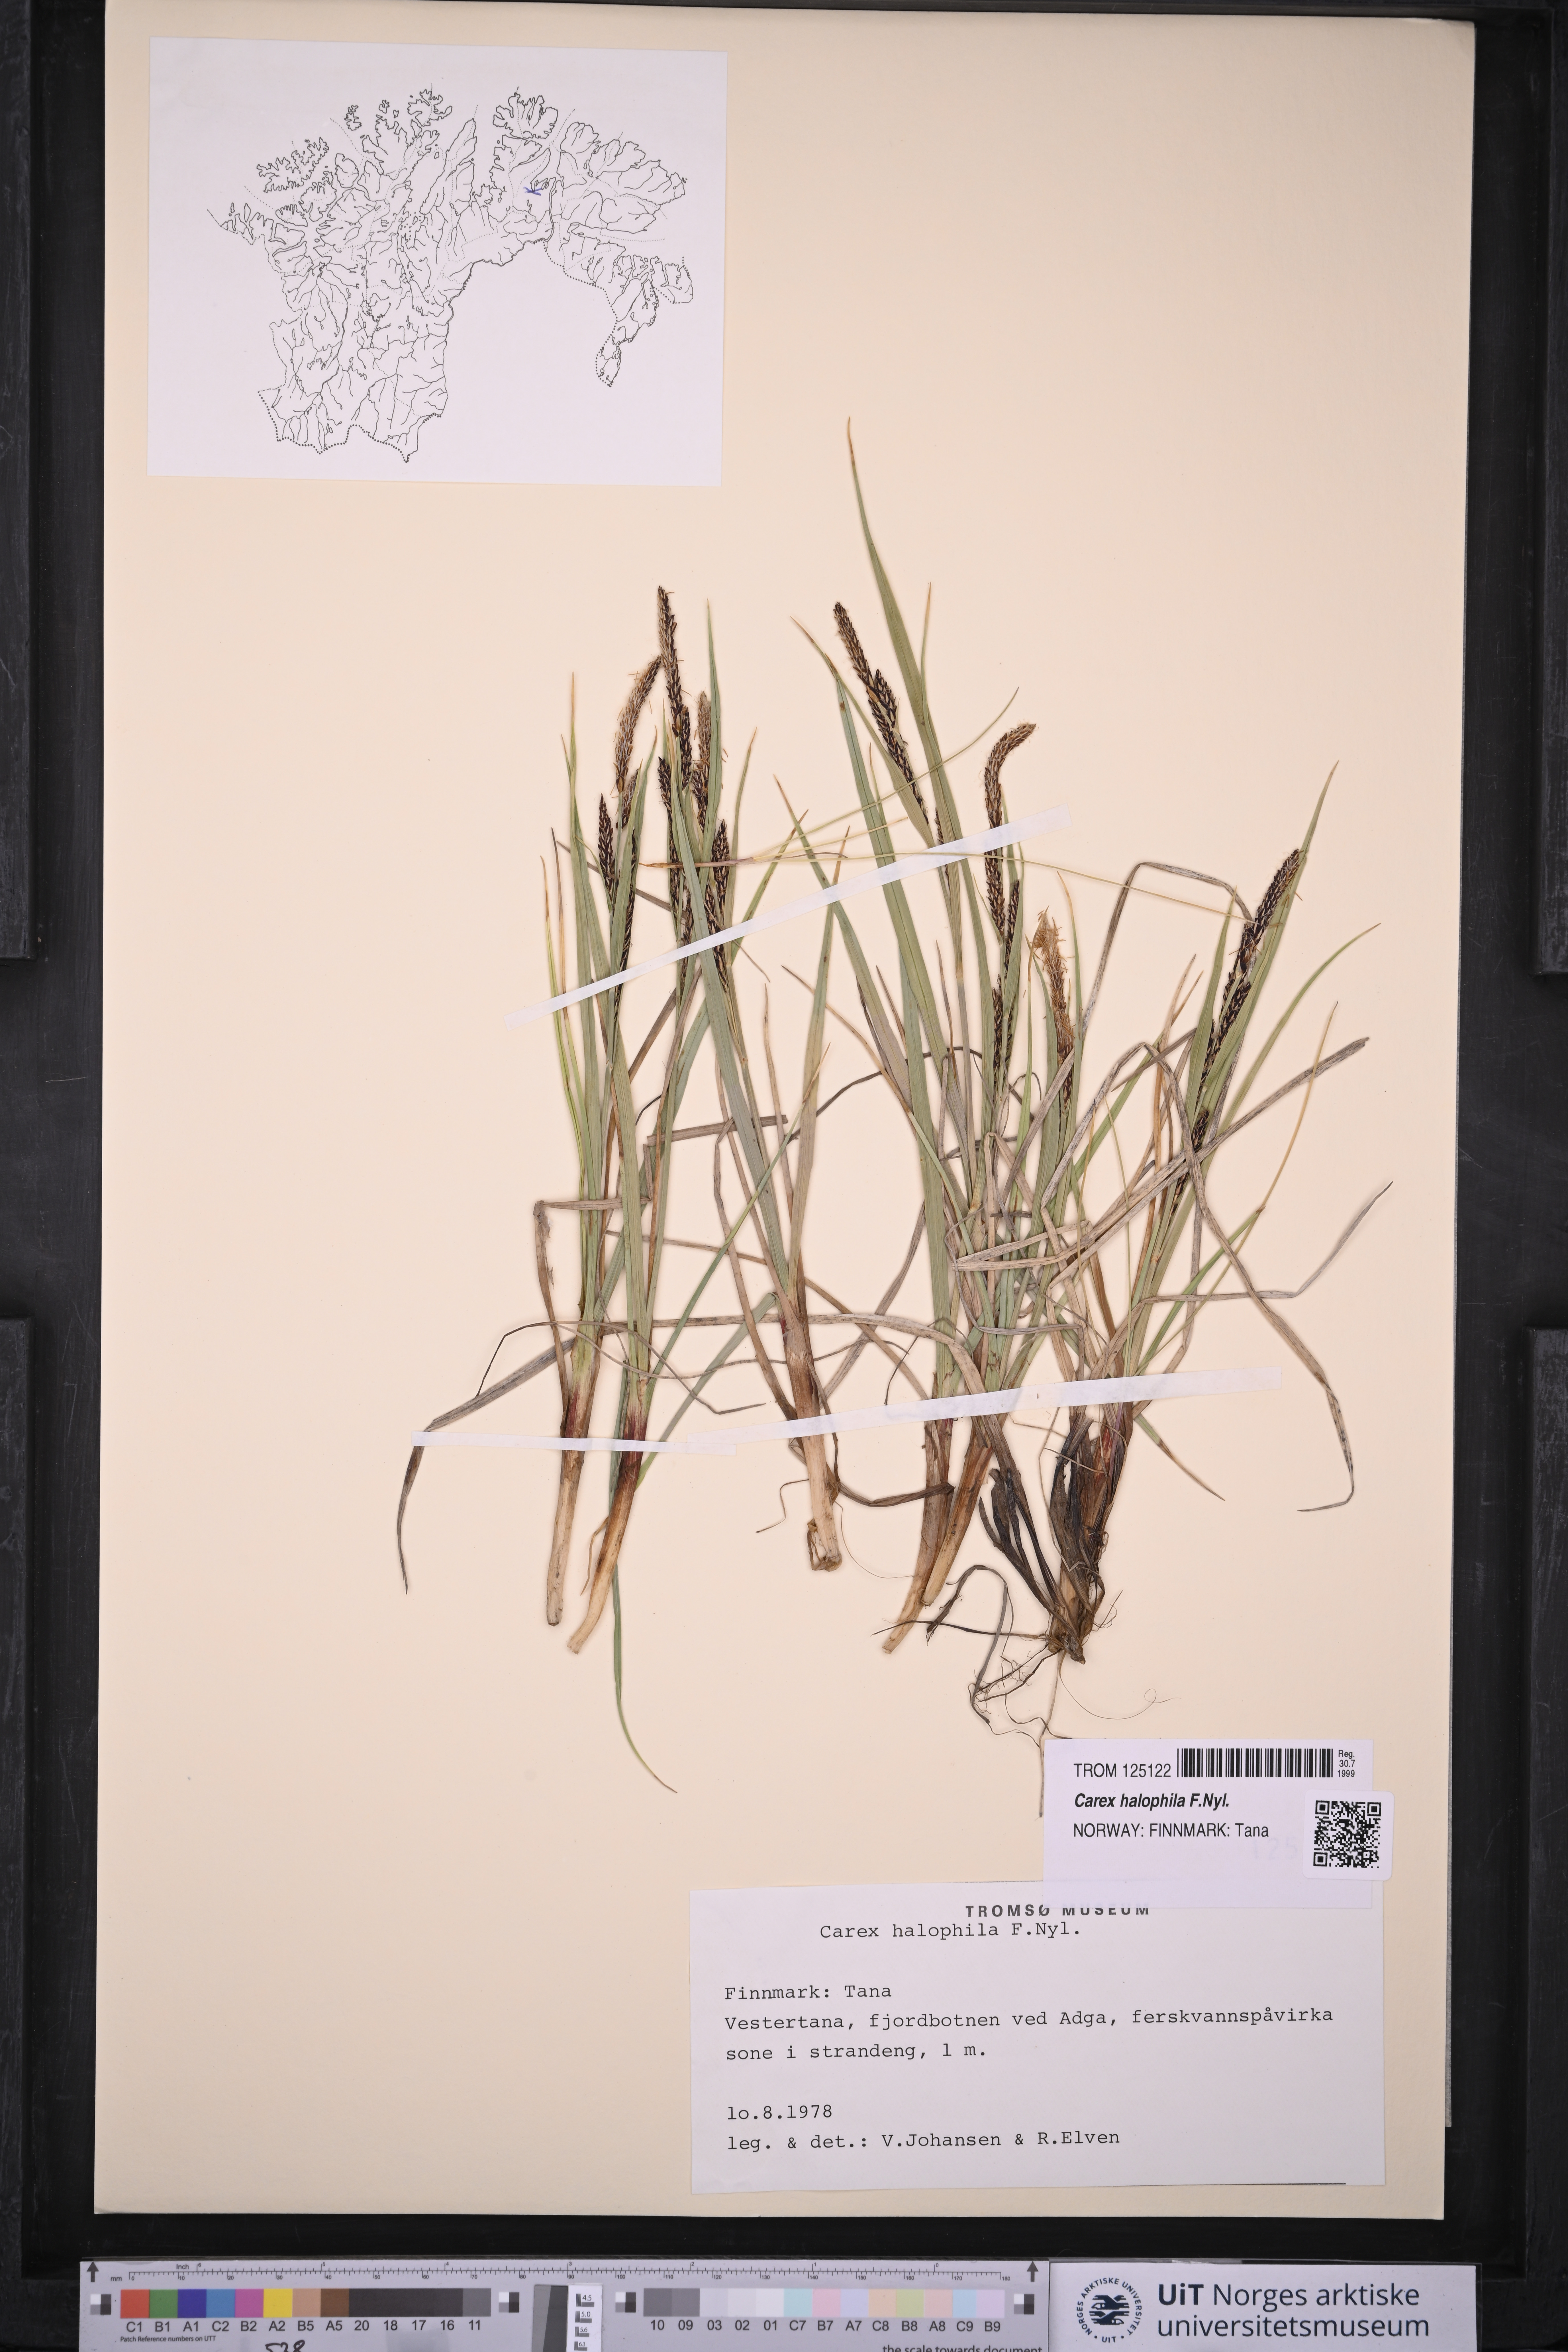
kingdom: Plantae
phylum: Tracheophyta
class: Liliopsida
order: Poales
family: Cyperaceae
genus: Carex
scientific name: Carex halophila
